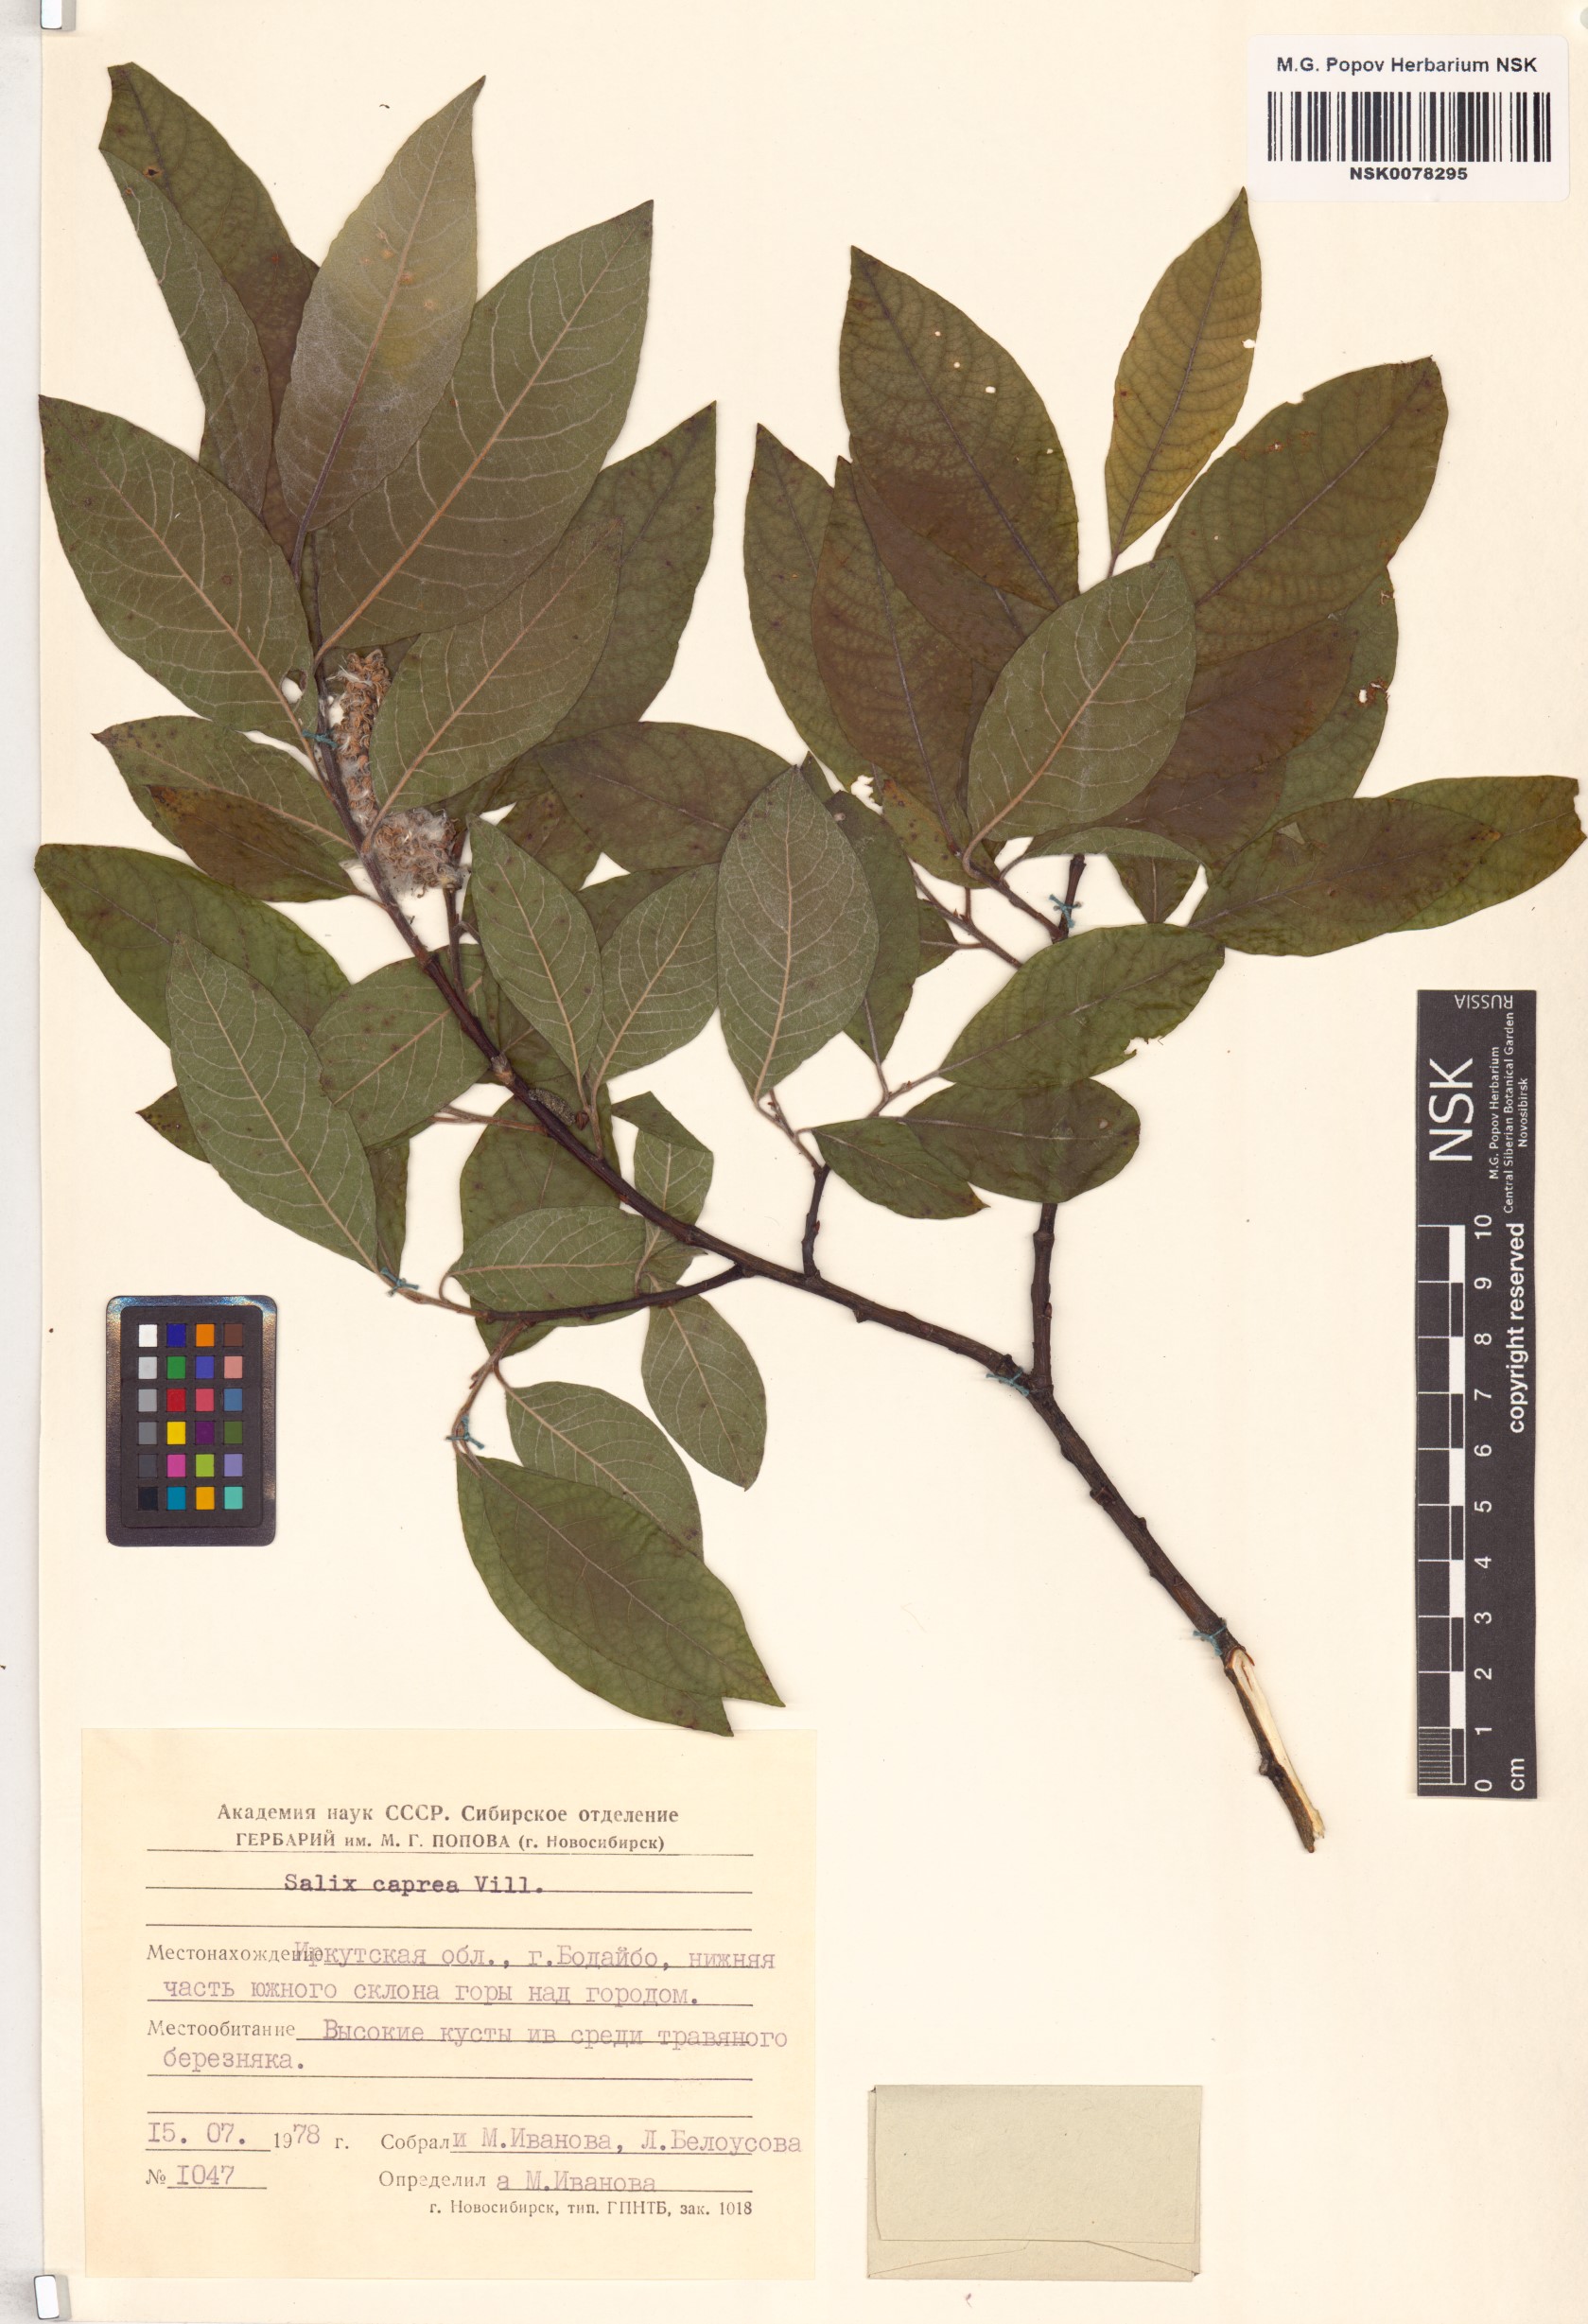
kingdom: Plantae
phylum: Tracheophyta
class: Magnoliopsida
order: Malpighiales
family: Salicaceae
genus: Salix
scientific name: Salix caprea
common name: Goat willow
